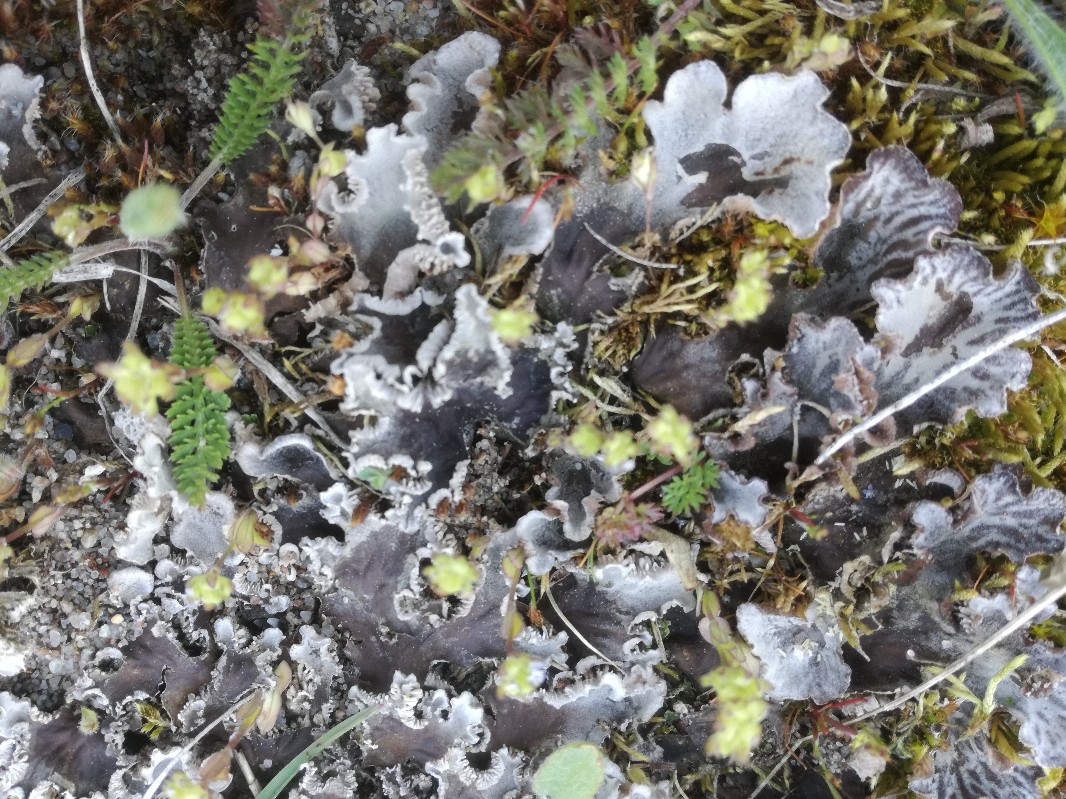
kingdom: Fungi
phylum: Ascomycota
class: Lecanoromycetes
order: Peltigerales
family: Peltigeraceae
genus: Peltigera
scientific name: Peltigera canina
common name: hunde-skjoldlav
